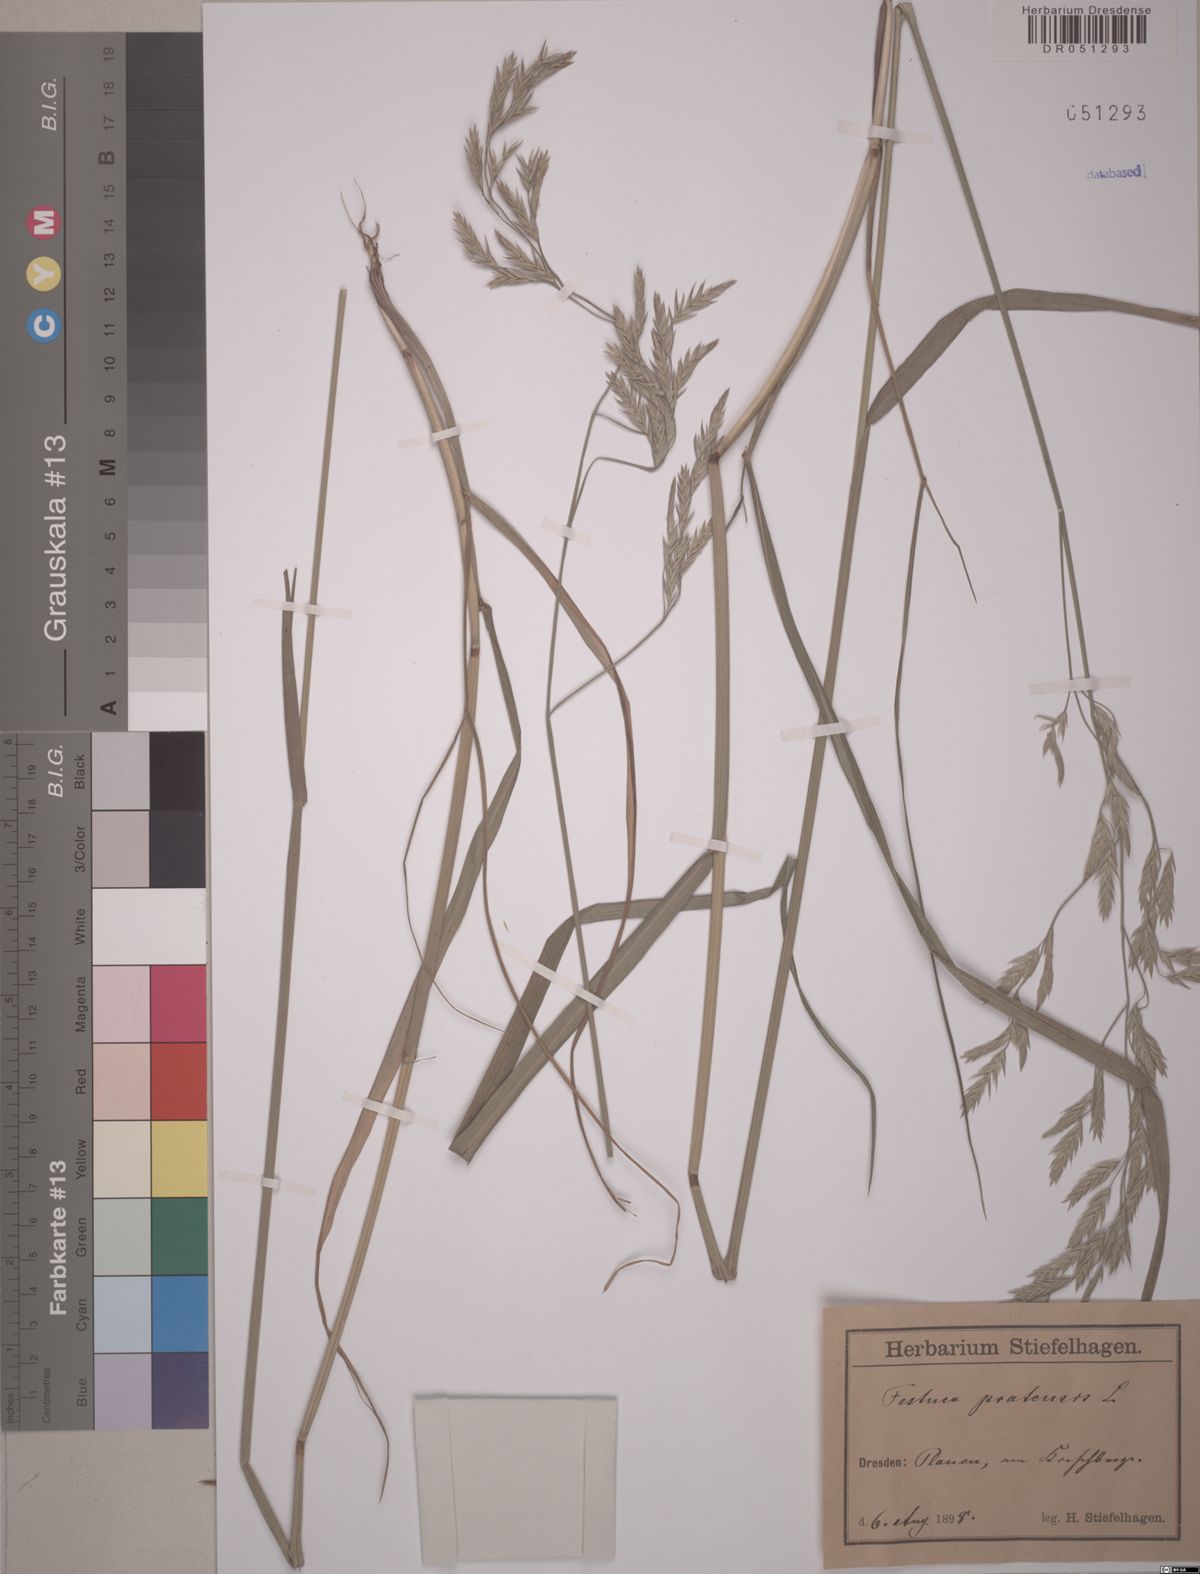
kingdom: Plantae
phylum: Tracheophyta
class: Liliopsida
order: Poales
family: Poaceae
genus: Lolium
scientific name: Lolium pratense
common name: Dover grass
